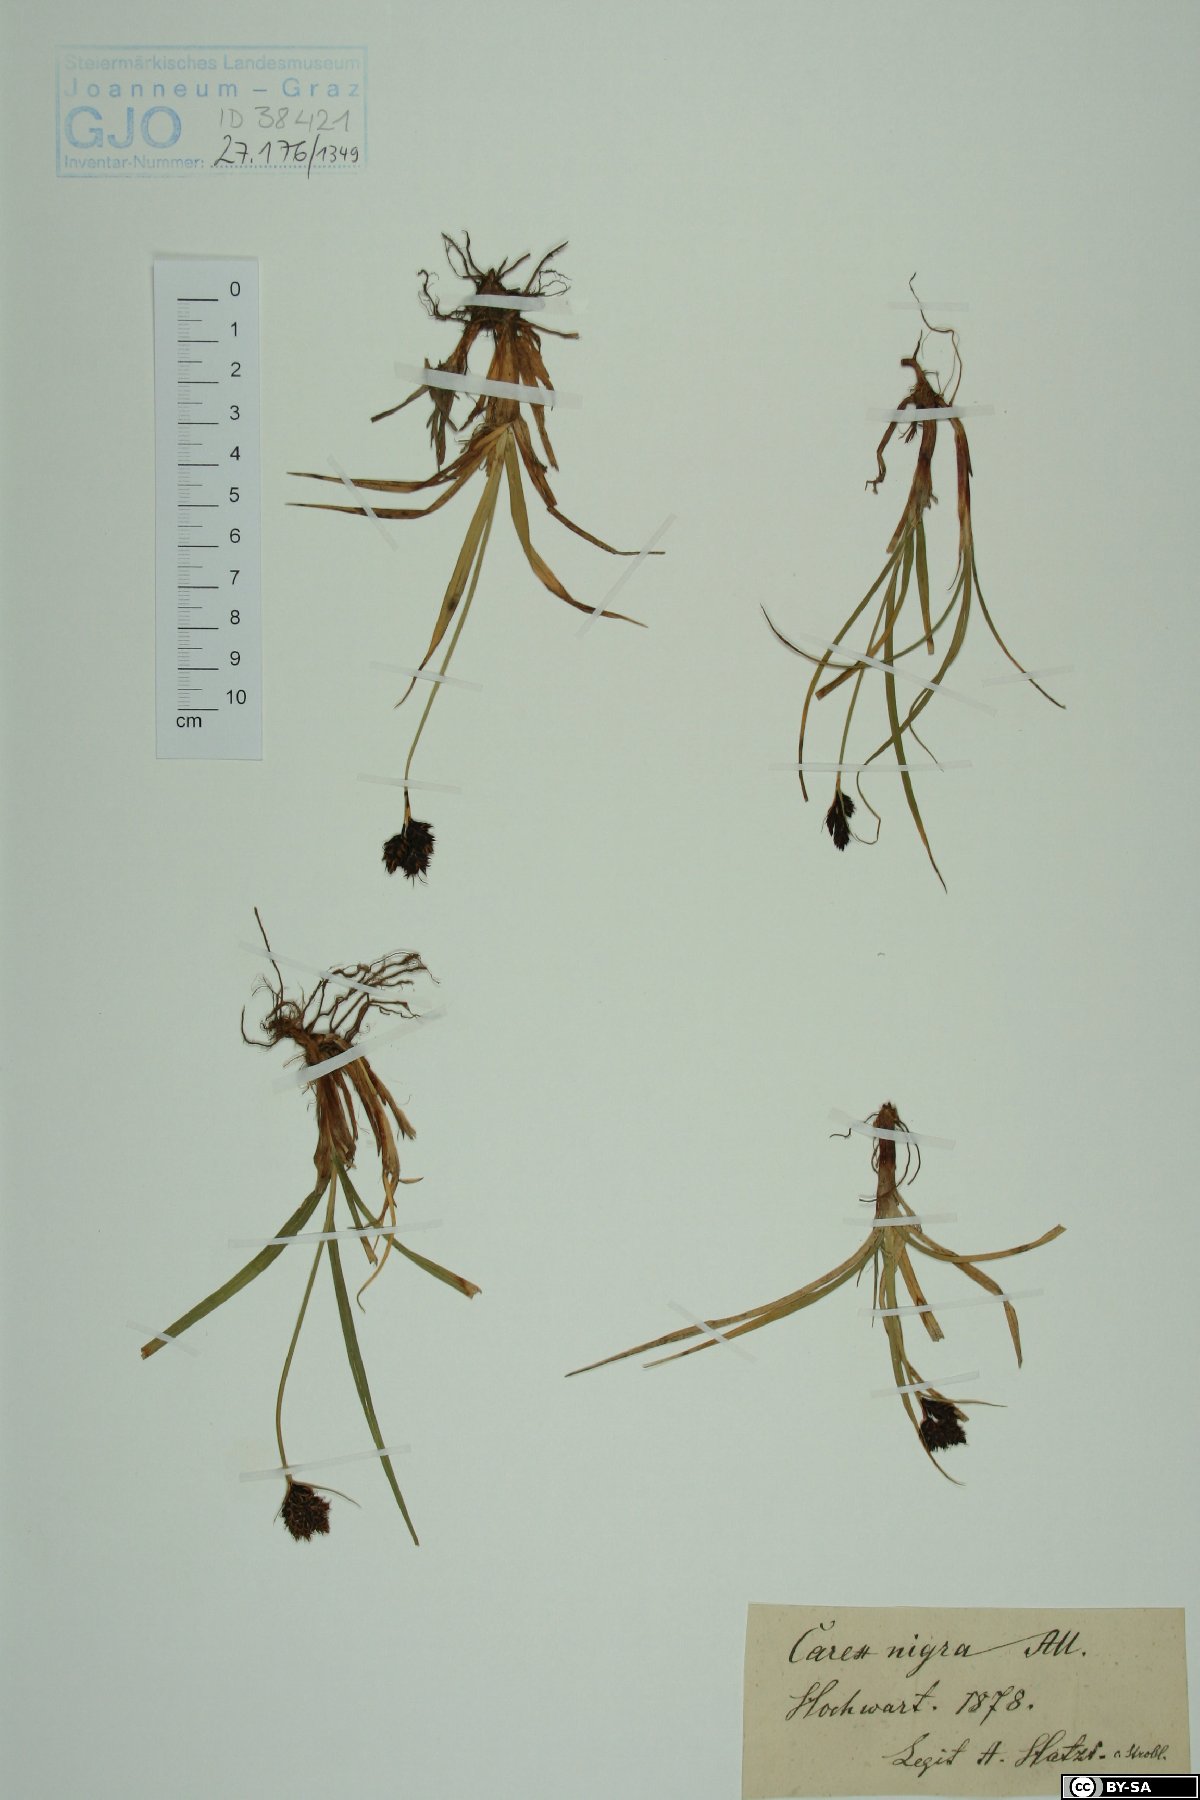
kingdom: Plantae
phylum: Tracheophyta
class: Liliopsida
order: Poales
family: Cyperaceae
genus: Carex
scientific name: Carex nigra
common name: Common sedge
